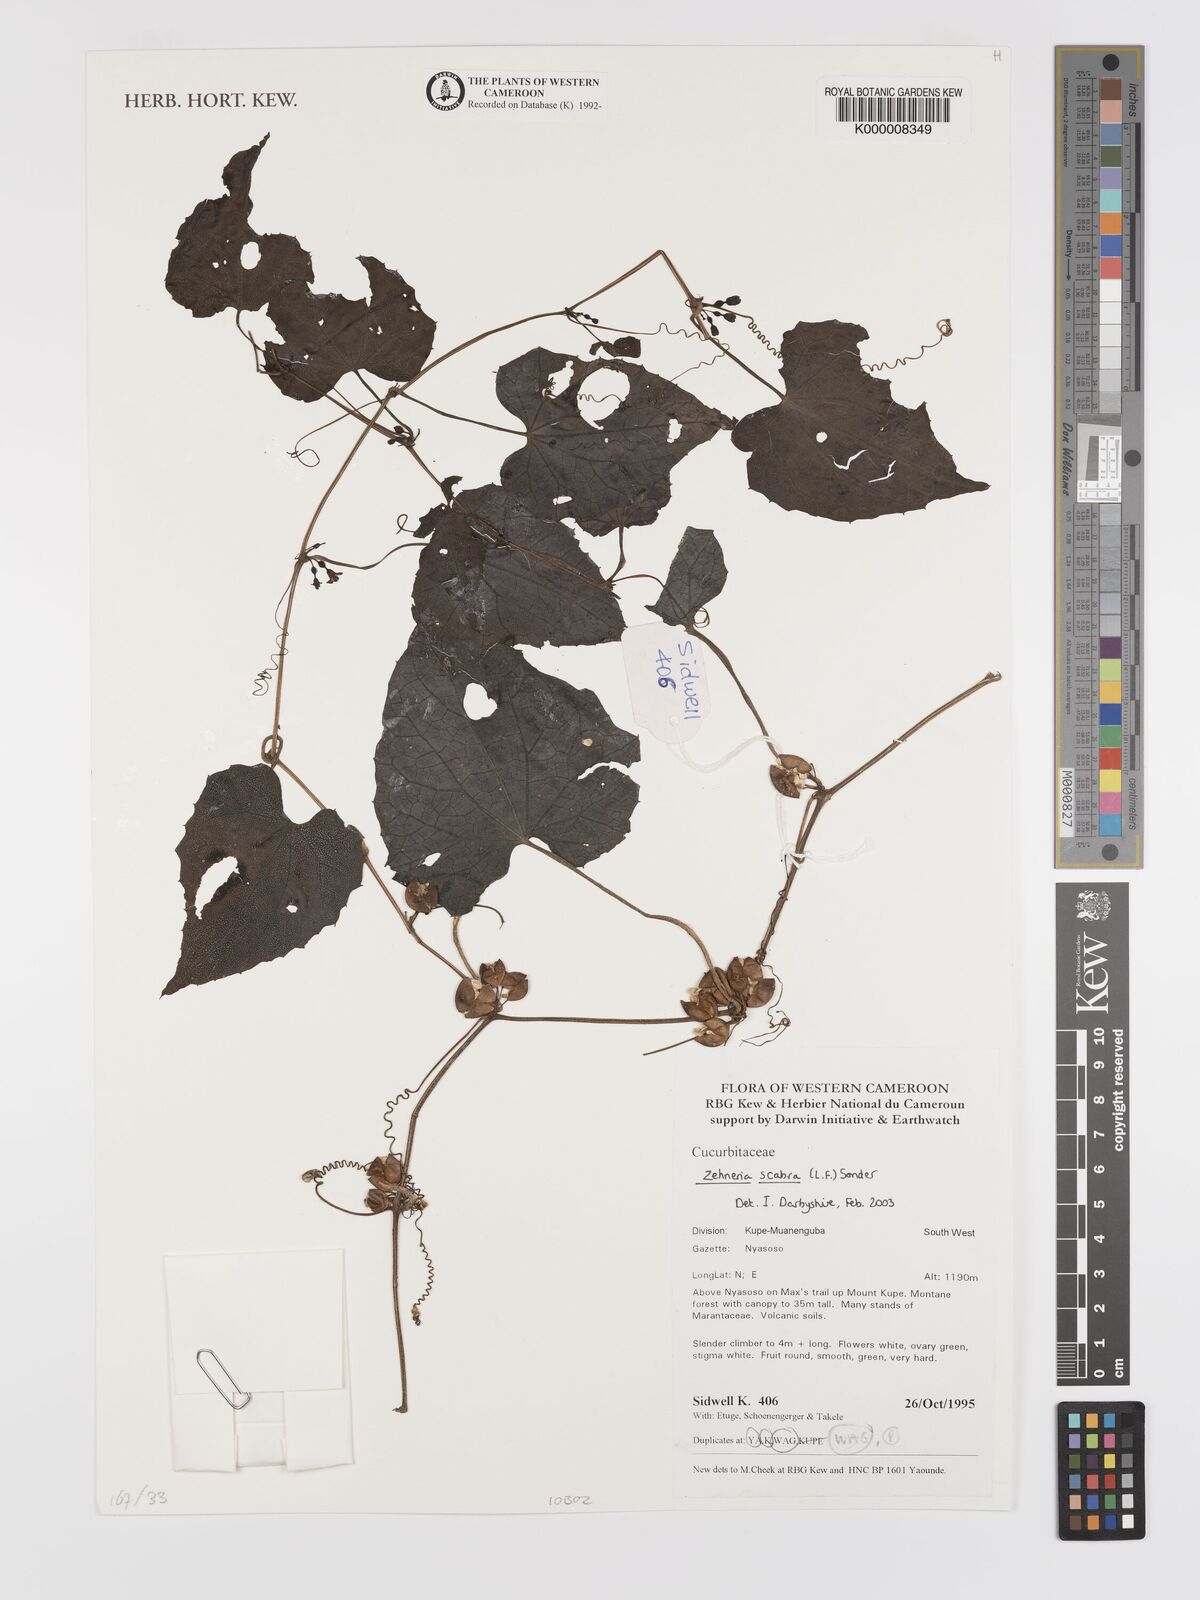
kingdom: Plantae
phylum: Tracheophyta
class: Magnoliopsida
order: Cucurbitales
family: Cucurbitaceae
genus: Zehneria
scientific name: Zehneria scabra
